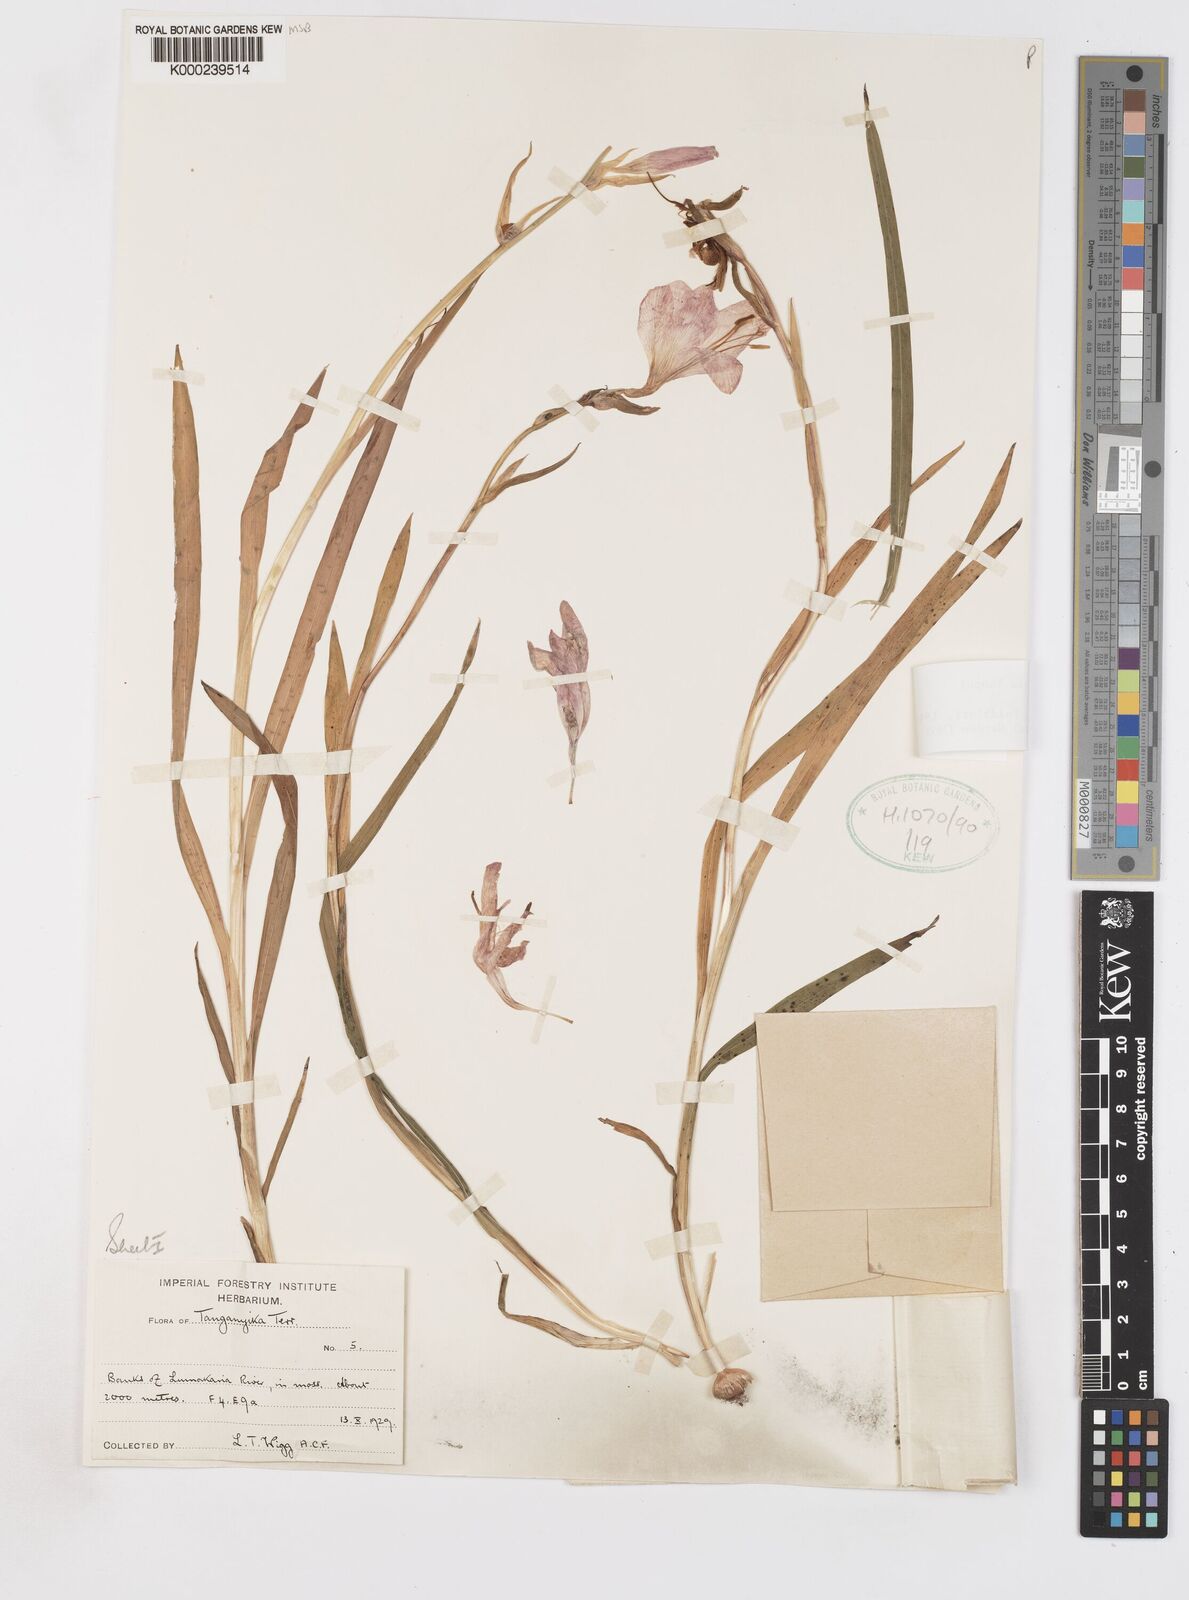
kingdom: Plantae
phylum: Tracheophyta
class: Liliopsida
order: Asparagales
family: Iridaceae
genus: Gladiolus
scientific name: Gladiolus rupicola
